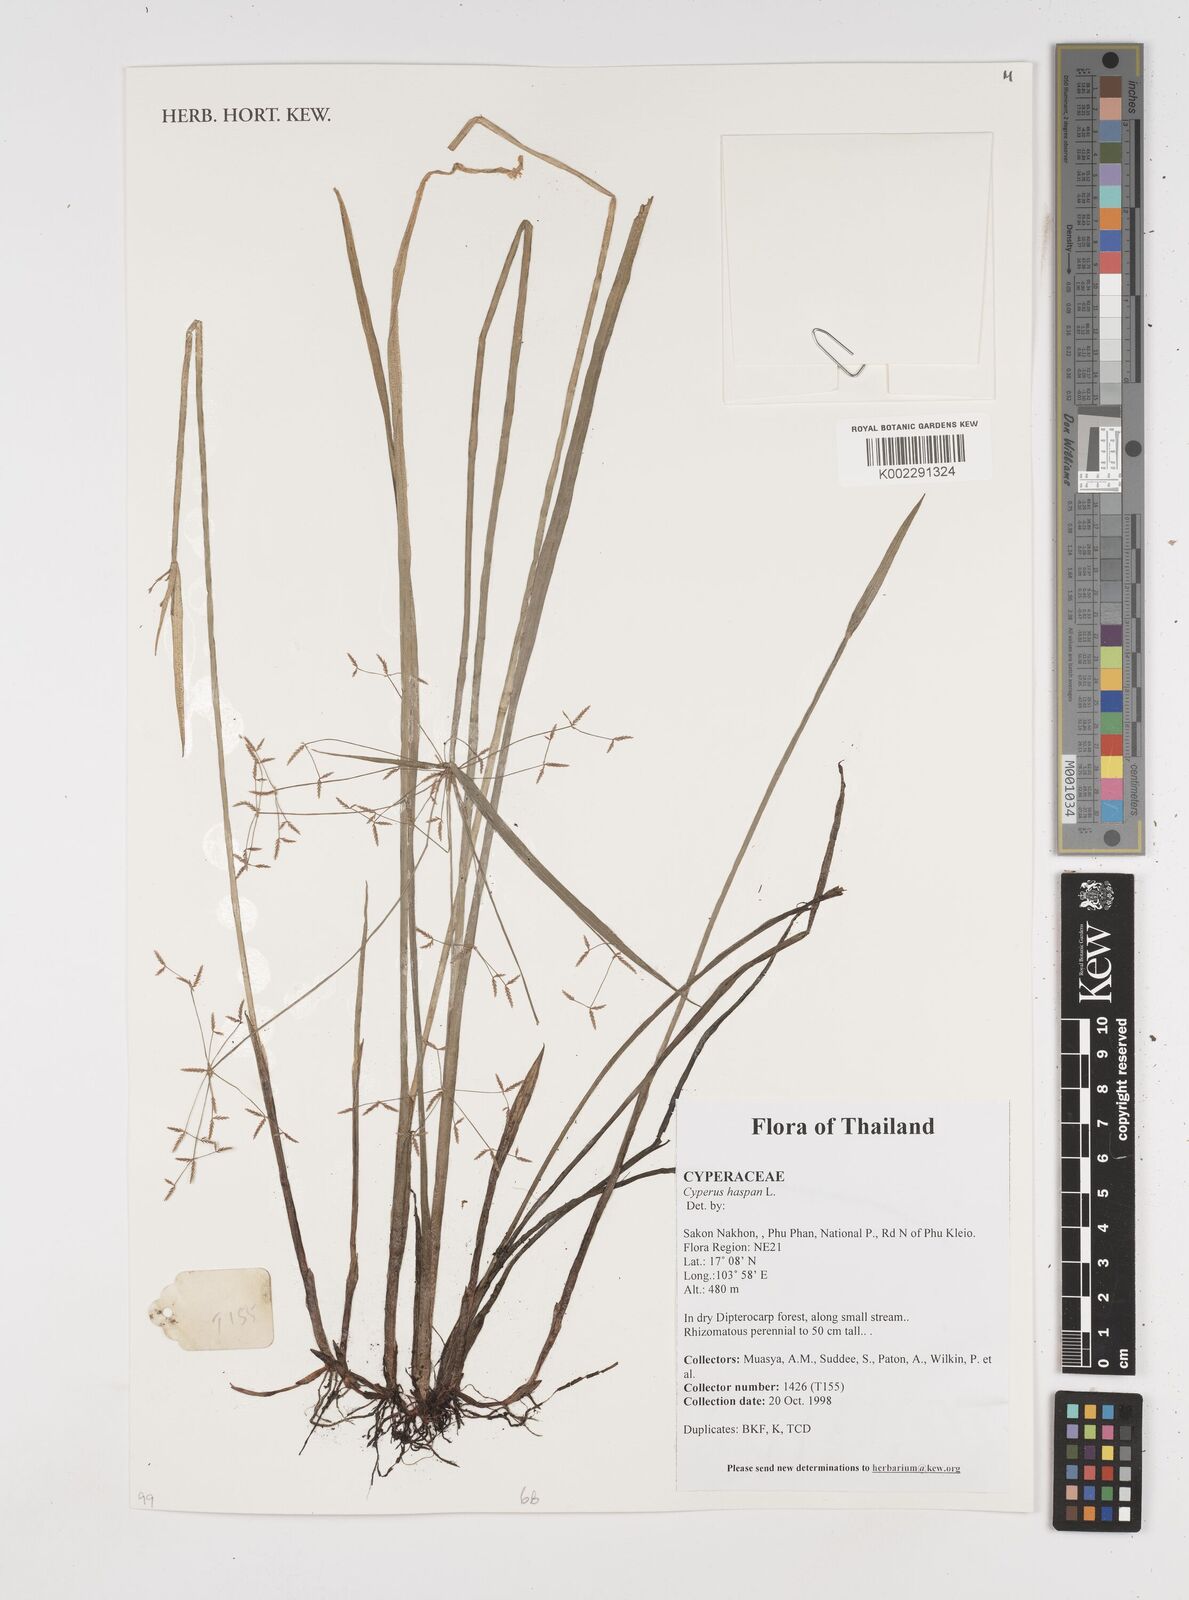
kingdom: Plantae
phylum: Tracheophyta
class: Liliopsida
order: Poales
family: Cyperaceae
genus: Cyperus
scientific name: Cyperus haspan
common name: Haspan flatsedge
